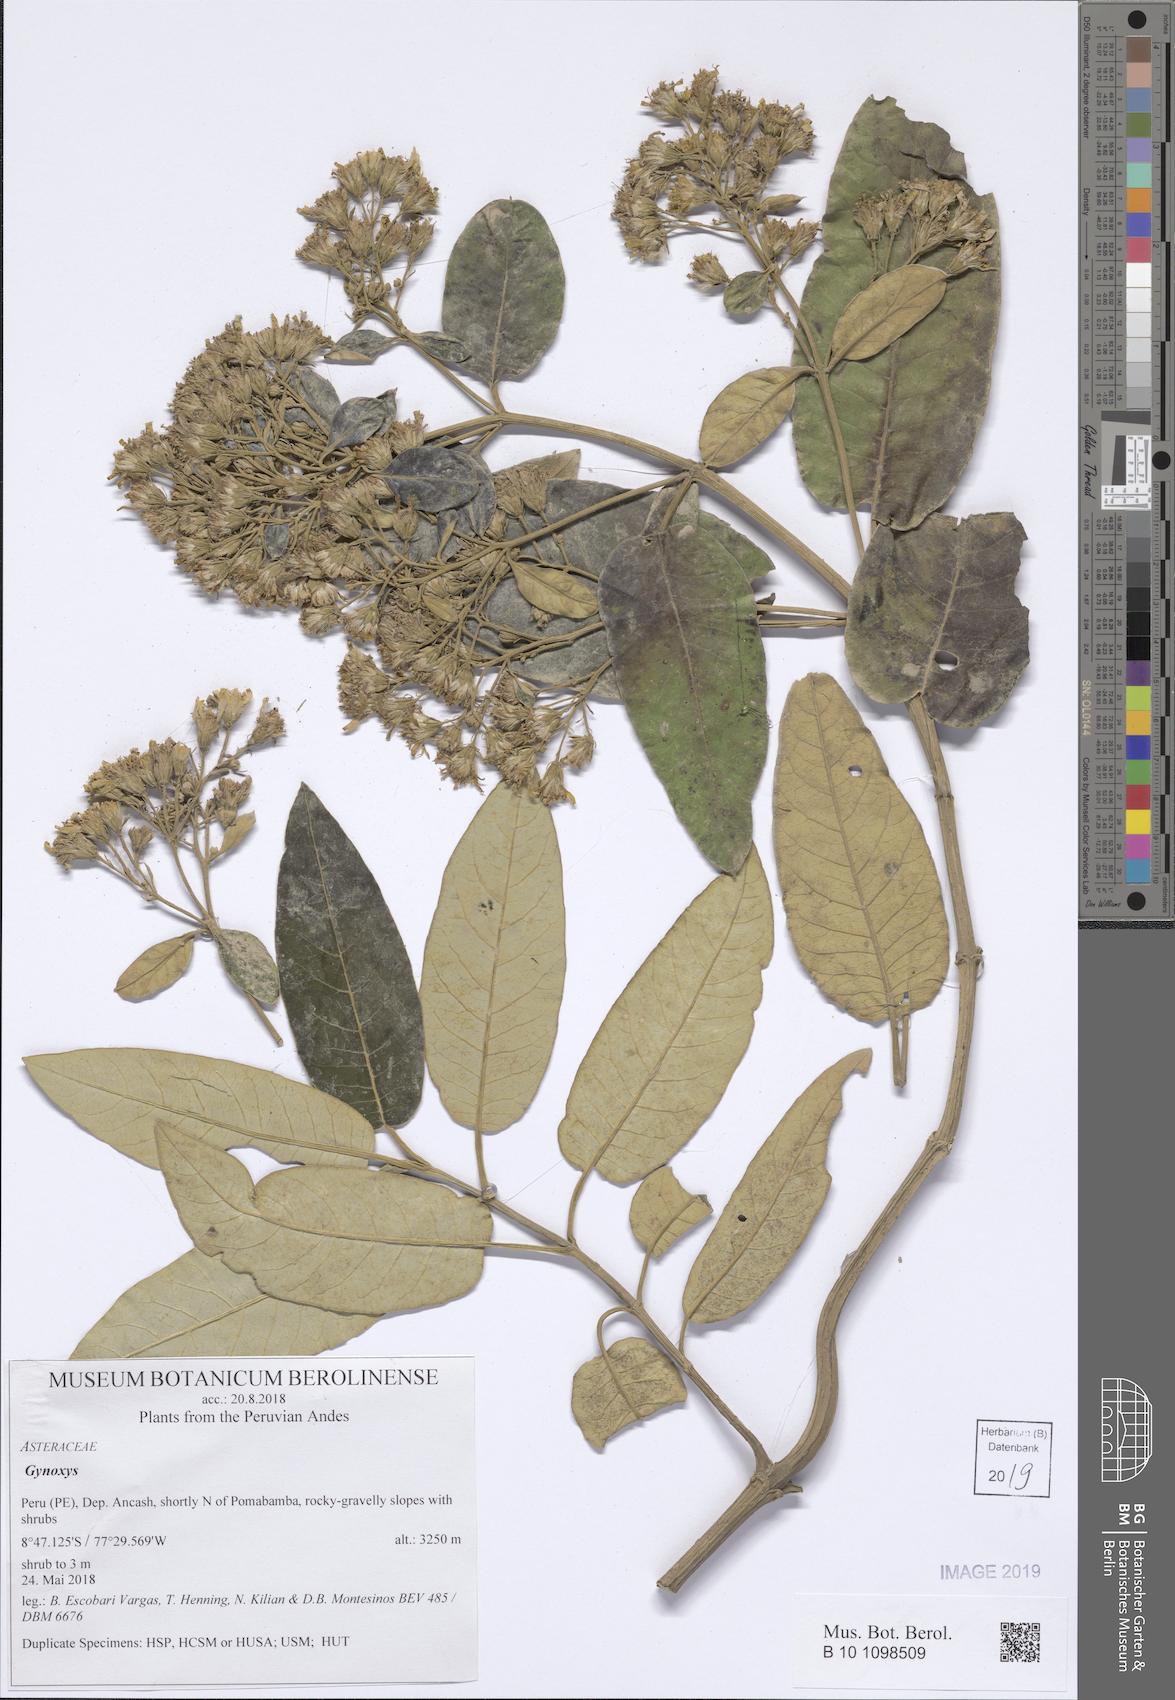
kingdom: Plantae
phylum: Tracheophyta
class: Magnoliopsida
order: Asterales
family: Asteraceae
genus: Gynoxys
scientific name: Gynoxys
